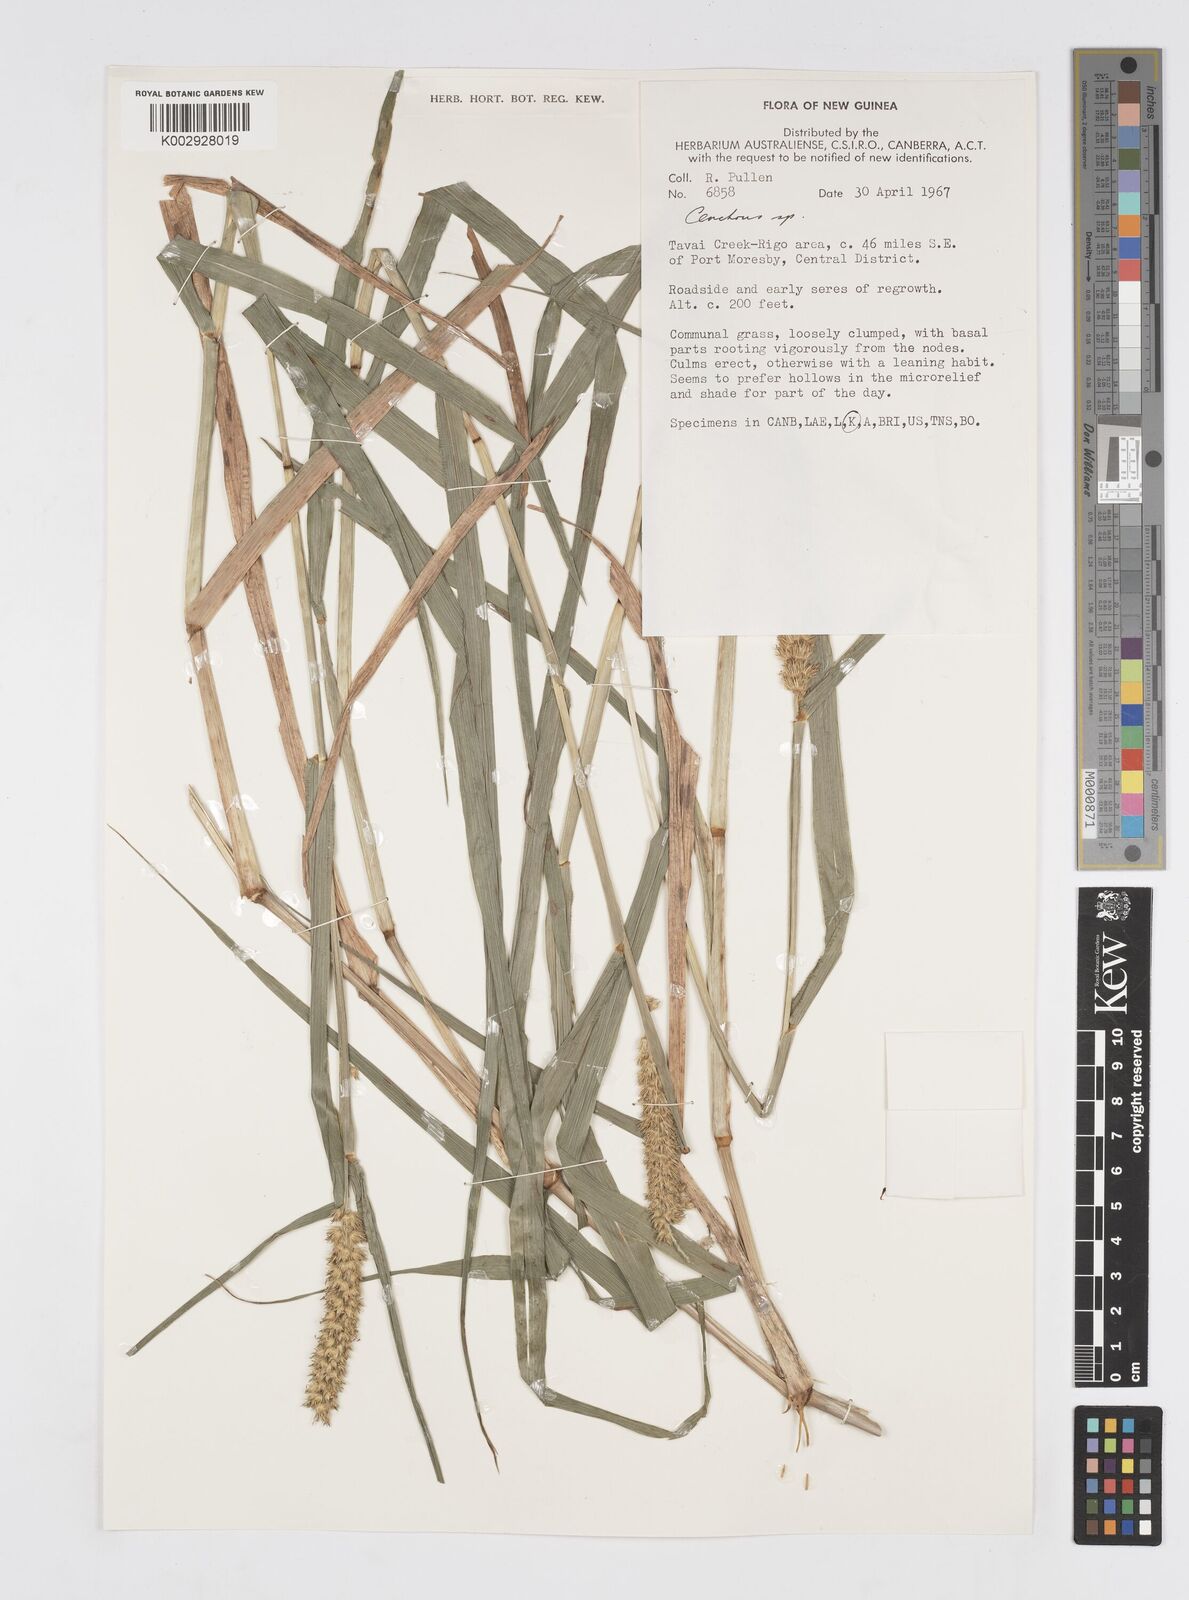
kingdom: Plantae
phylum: Tracheophyta
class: Liliopsida
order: Poales
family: Poaceae
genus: Cenchrus
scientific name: Cenchrus brownii
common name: Slim-bristle sandbur
